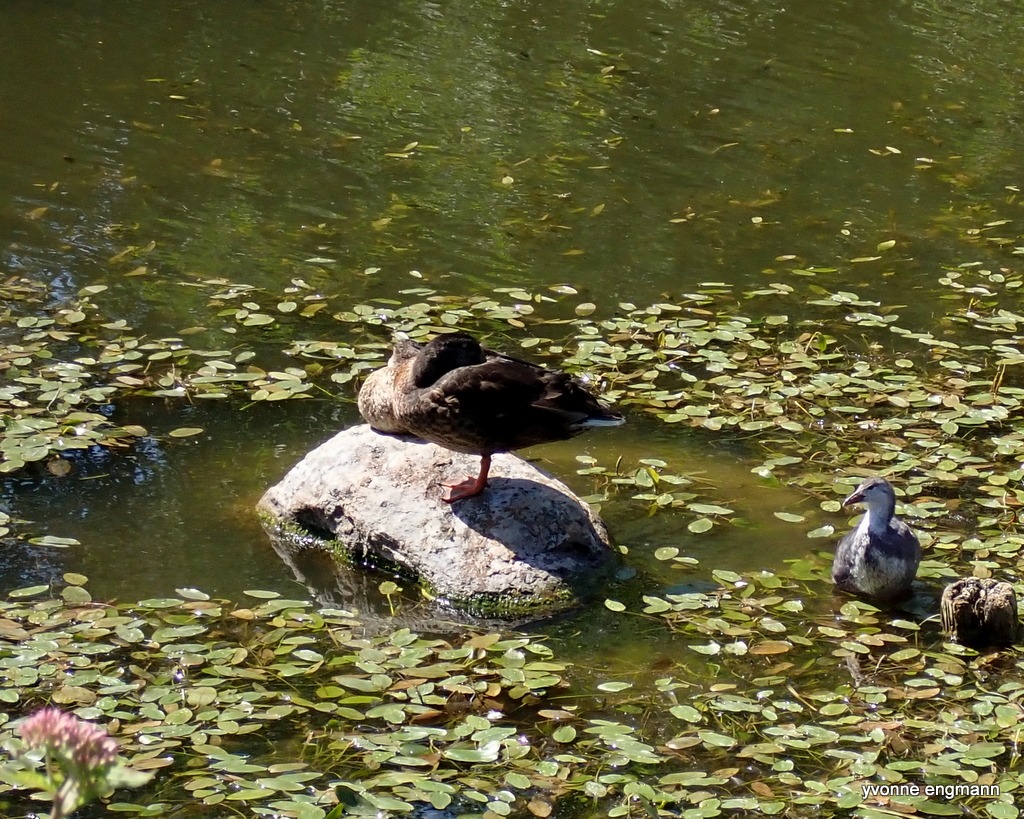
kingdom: Animalia
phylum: Chordata
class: Aves
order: Anseriformes
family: Anatidae
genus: Anas
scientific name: Anas platyrhynchos
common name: Gråand
